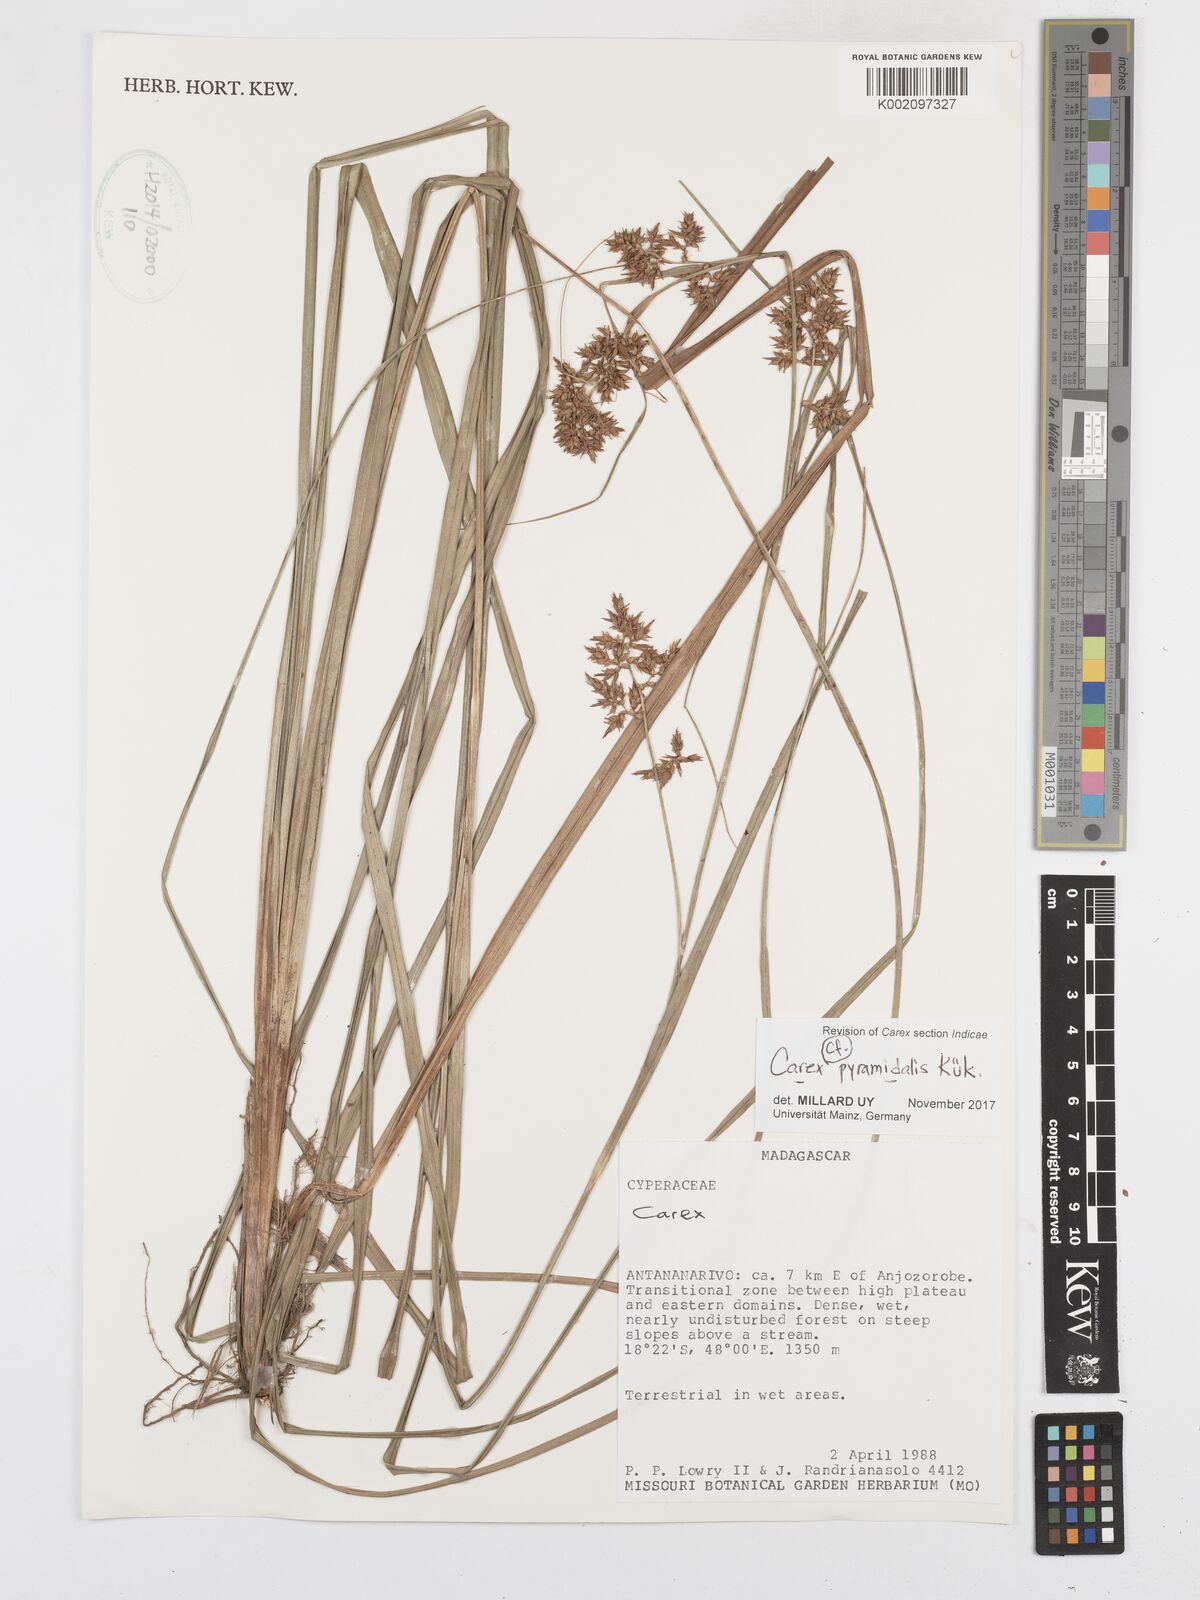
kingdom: Plantae
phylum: Tracheophyta
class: Liliopsida
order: Poales
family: Cyperaceae
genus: Carex
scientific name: Carex pyramidalis
